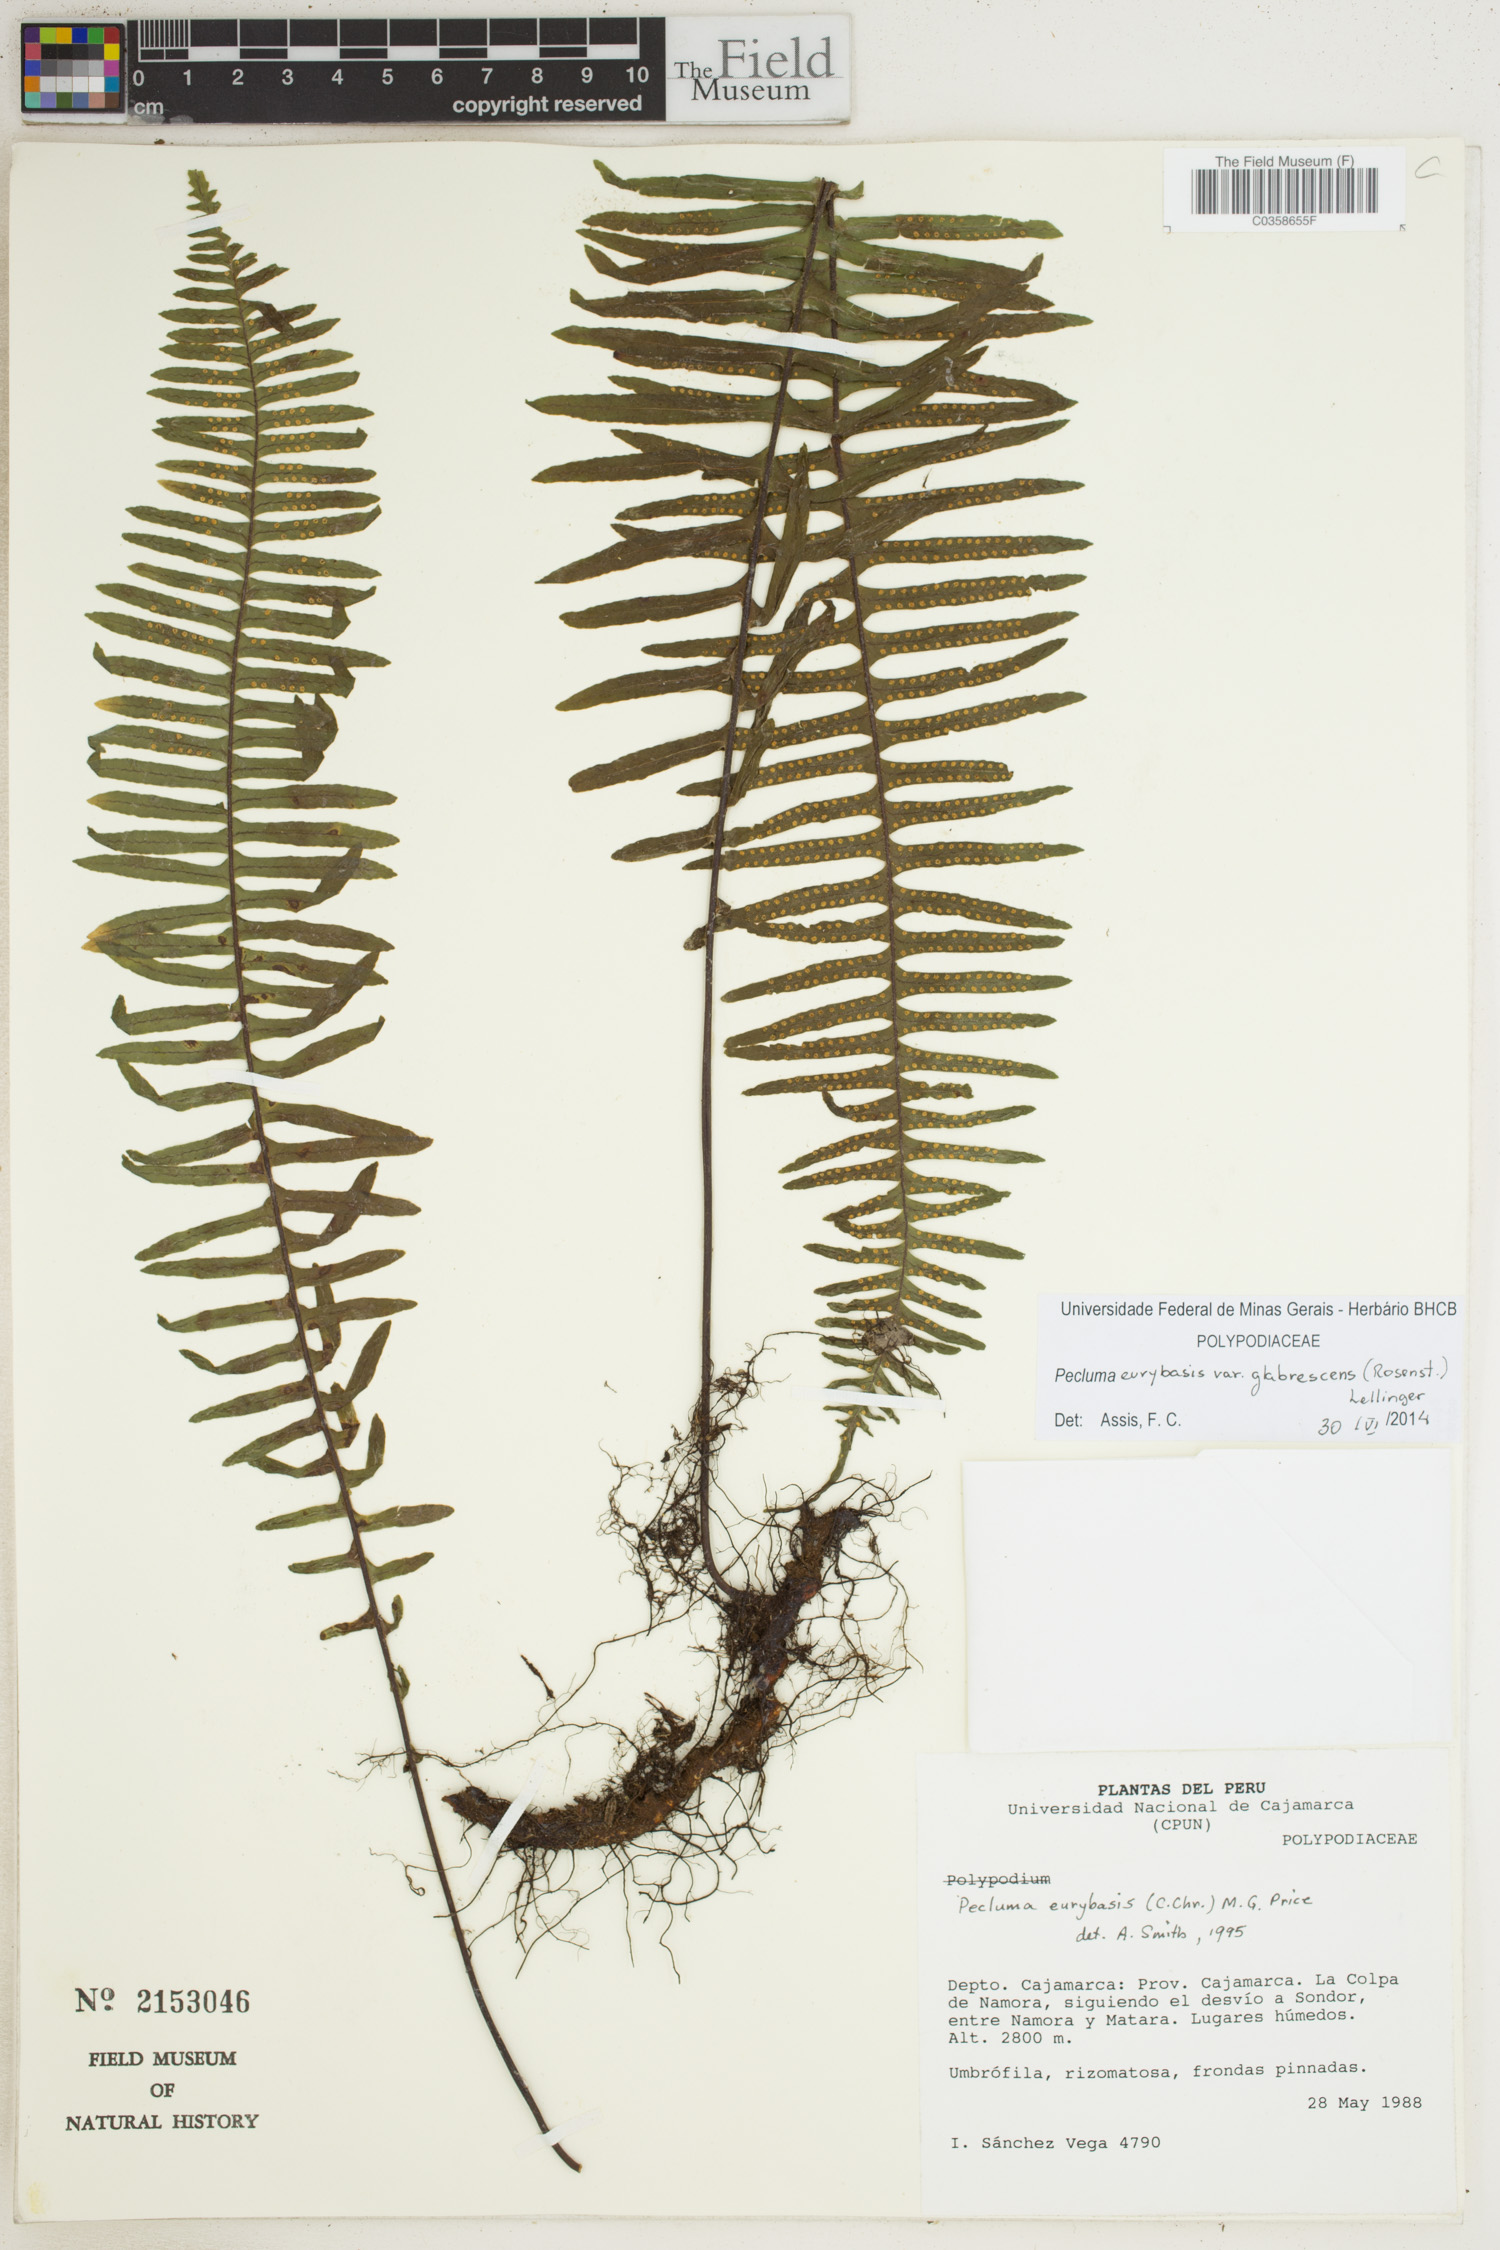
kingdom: Plantae
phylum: Tracheophyta
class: Polypodiopsida
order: Polypodiales
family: Polypodiaceae
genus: Pecluma
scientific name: Pecluma eurybasis
